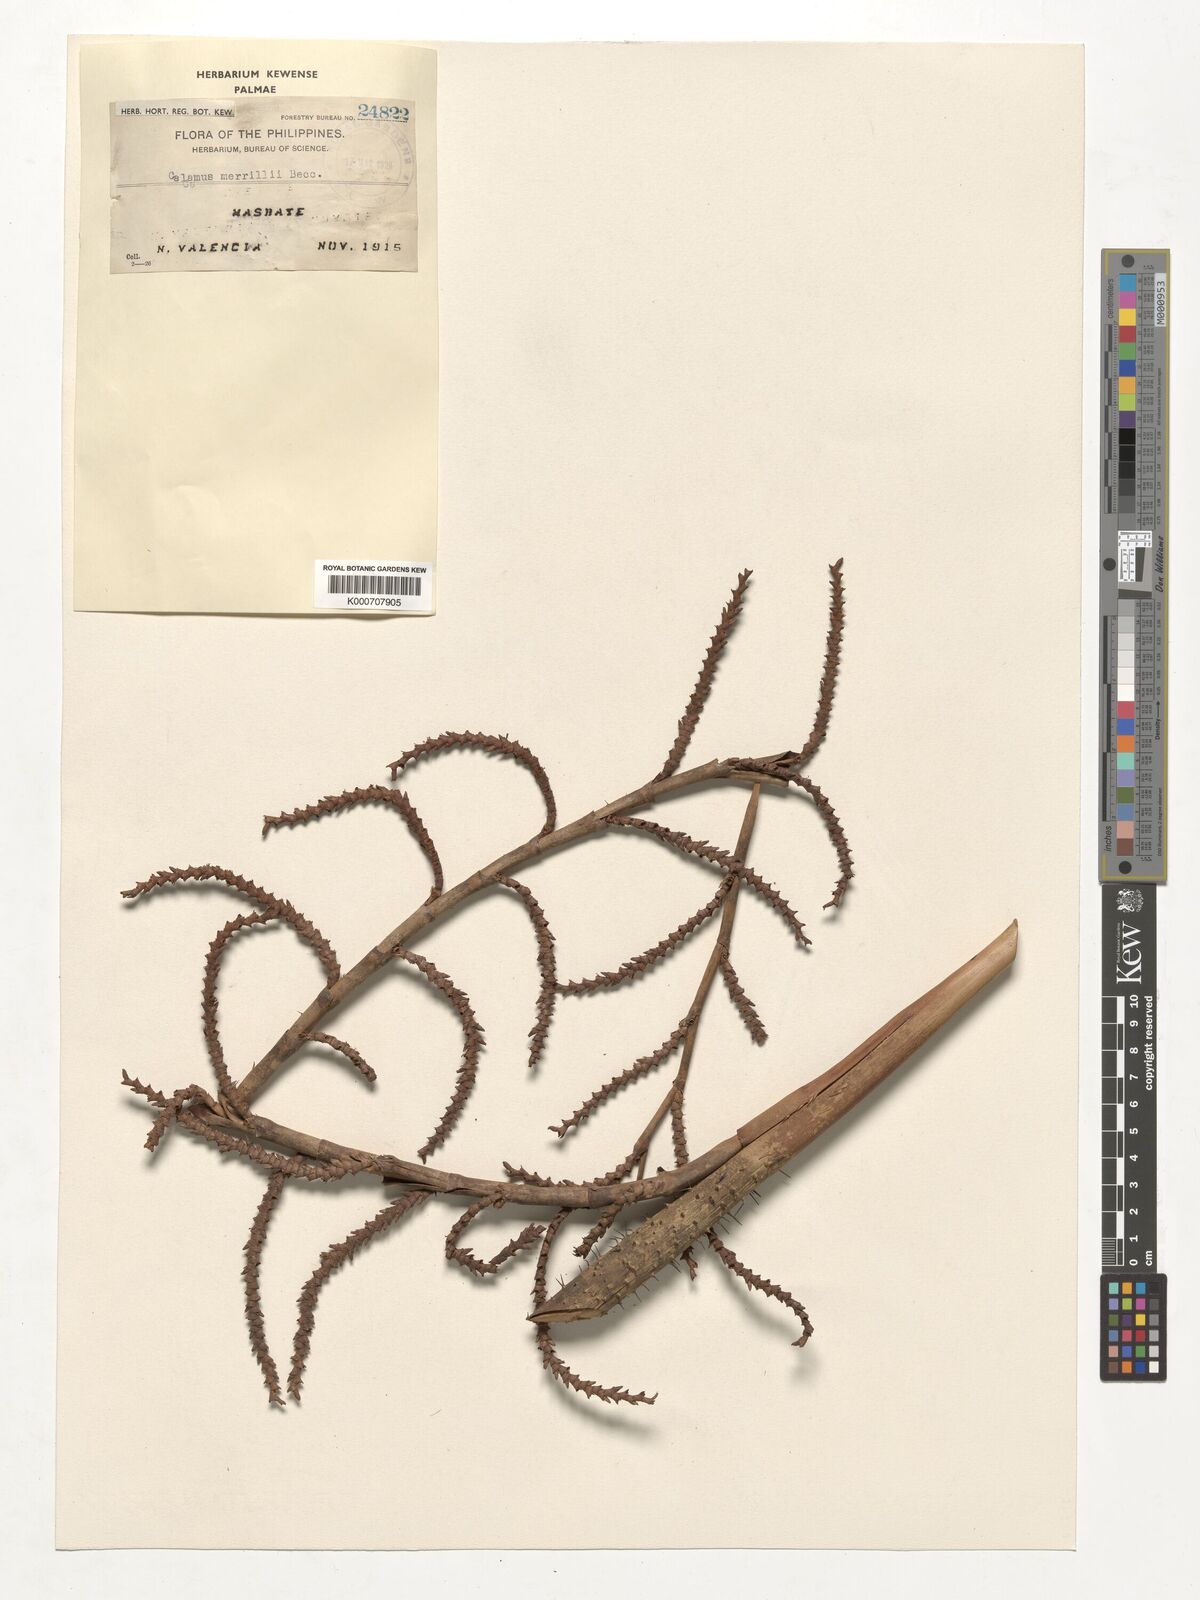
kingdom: Plantae
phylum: Tracheophyta
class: Liliopsida
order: Arecales
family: Arecaceae
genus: Calamus
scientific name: Calamus zollingeri
